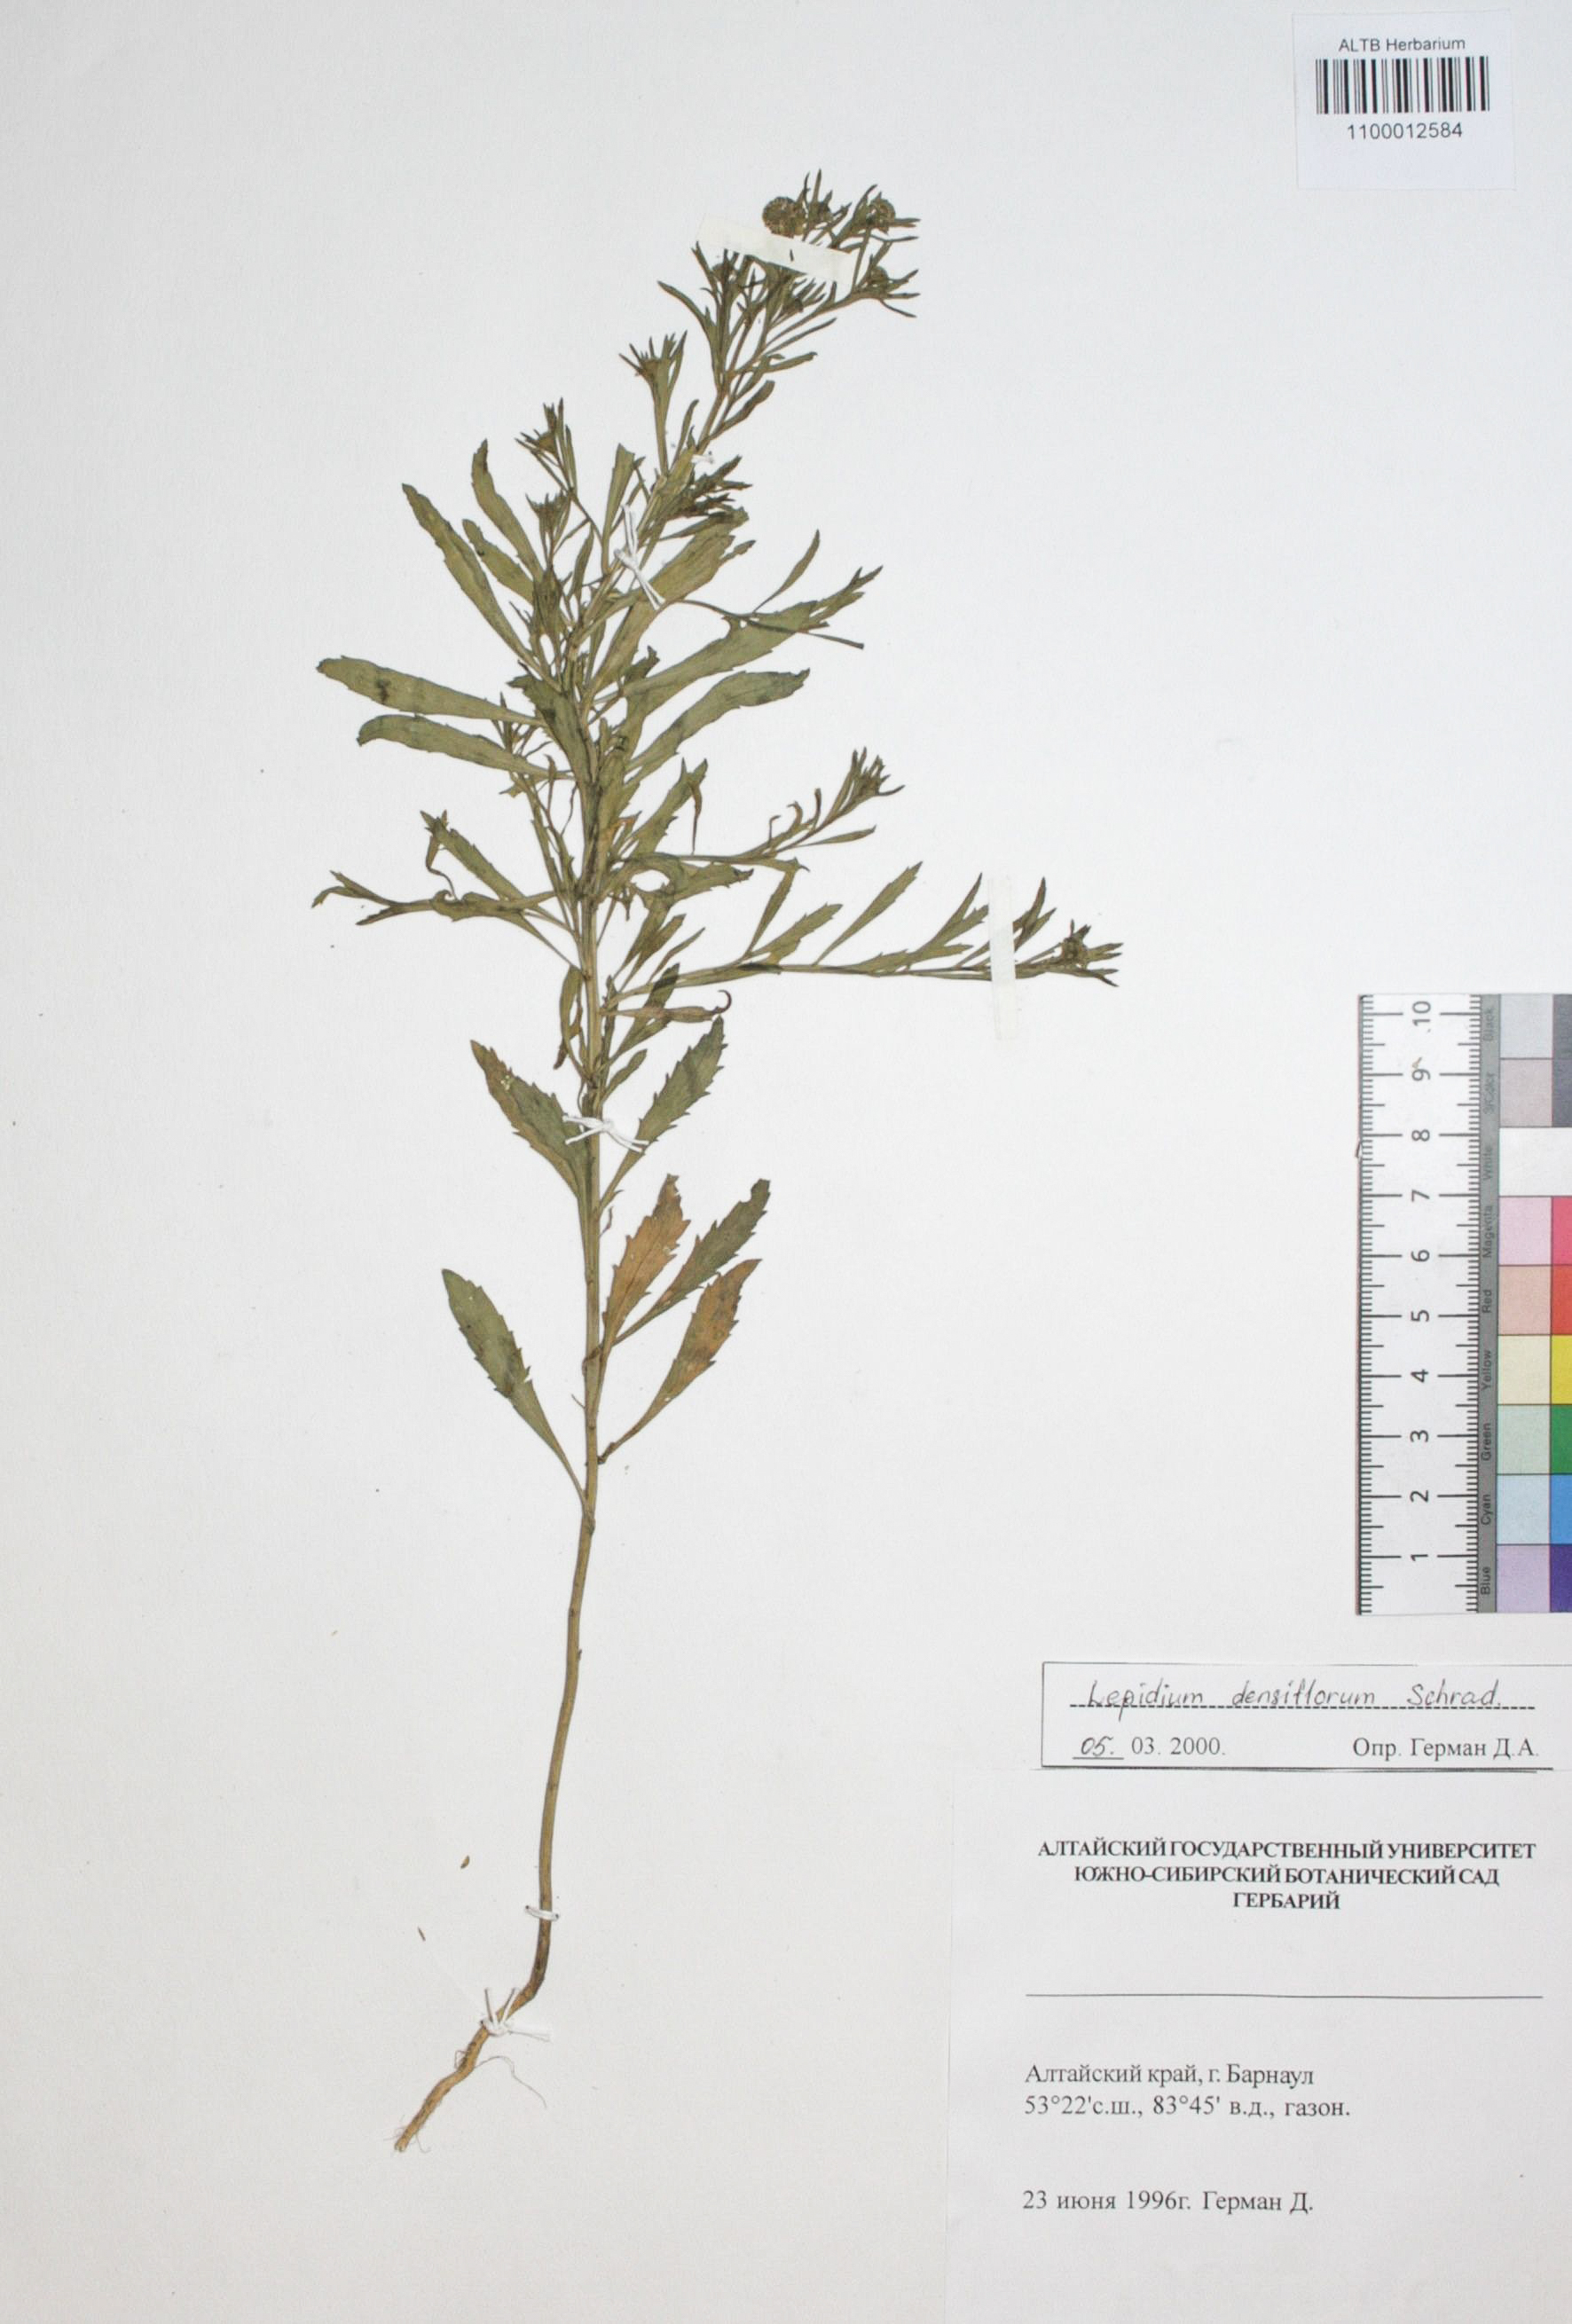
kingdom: Plantae
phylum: Tracheophyta
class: Magnoliopsida
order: Brassicales
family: Brassicaceae
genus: Lepidium
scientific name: Lepidium densiflorum
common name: Miner's pepperwort
